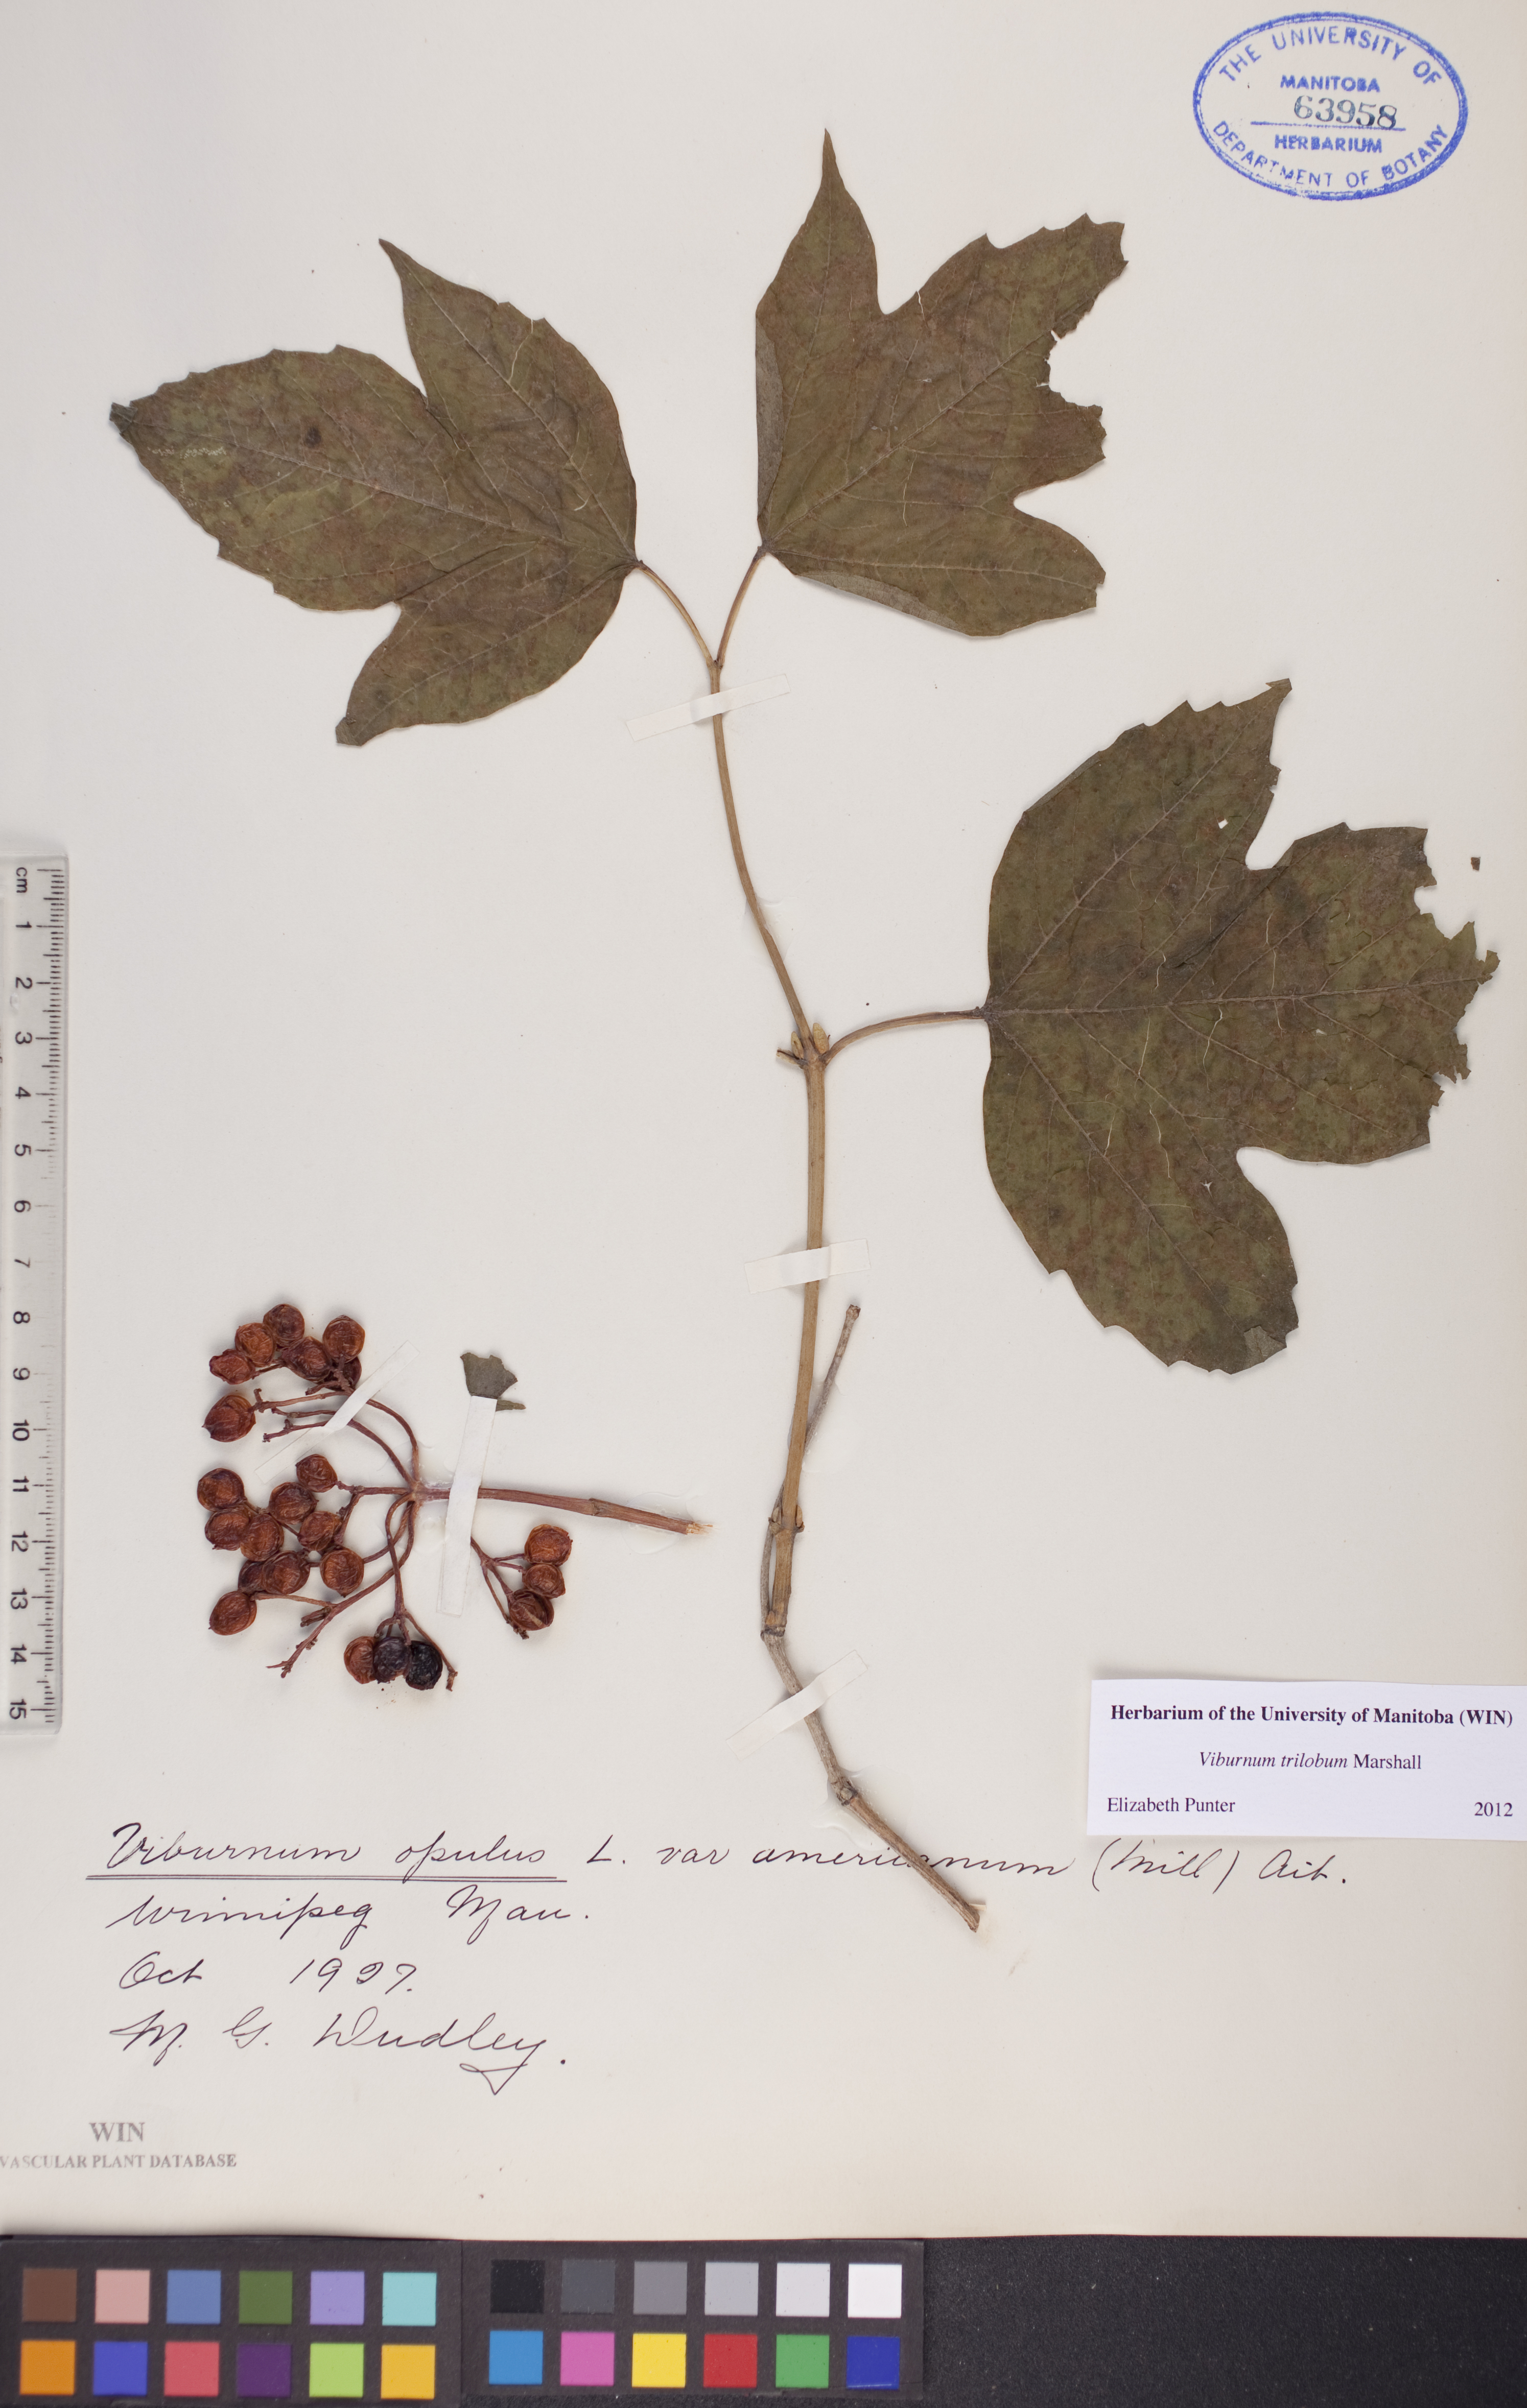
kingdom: Plantae
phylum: Tracheophyta
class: Magnoliopsida
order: Dipsacales
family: Viburnaceae
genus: Viburnum
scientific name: Viburnum trilobum
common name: American cranberrybush
